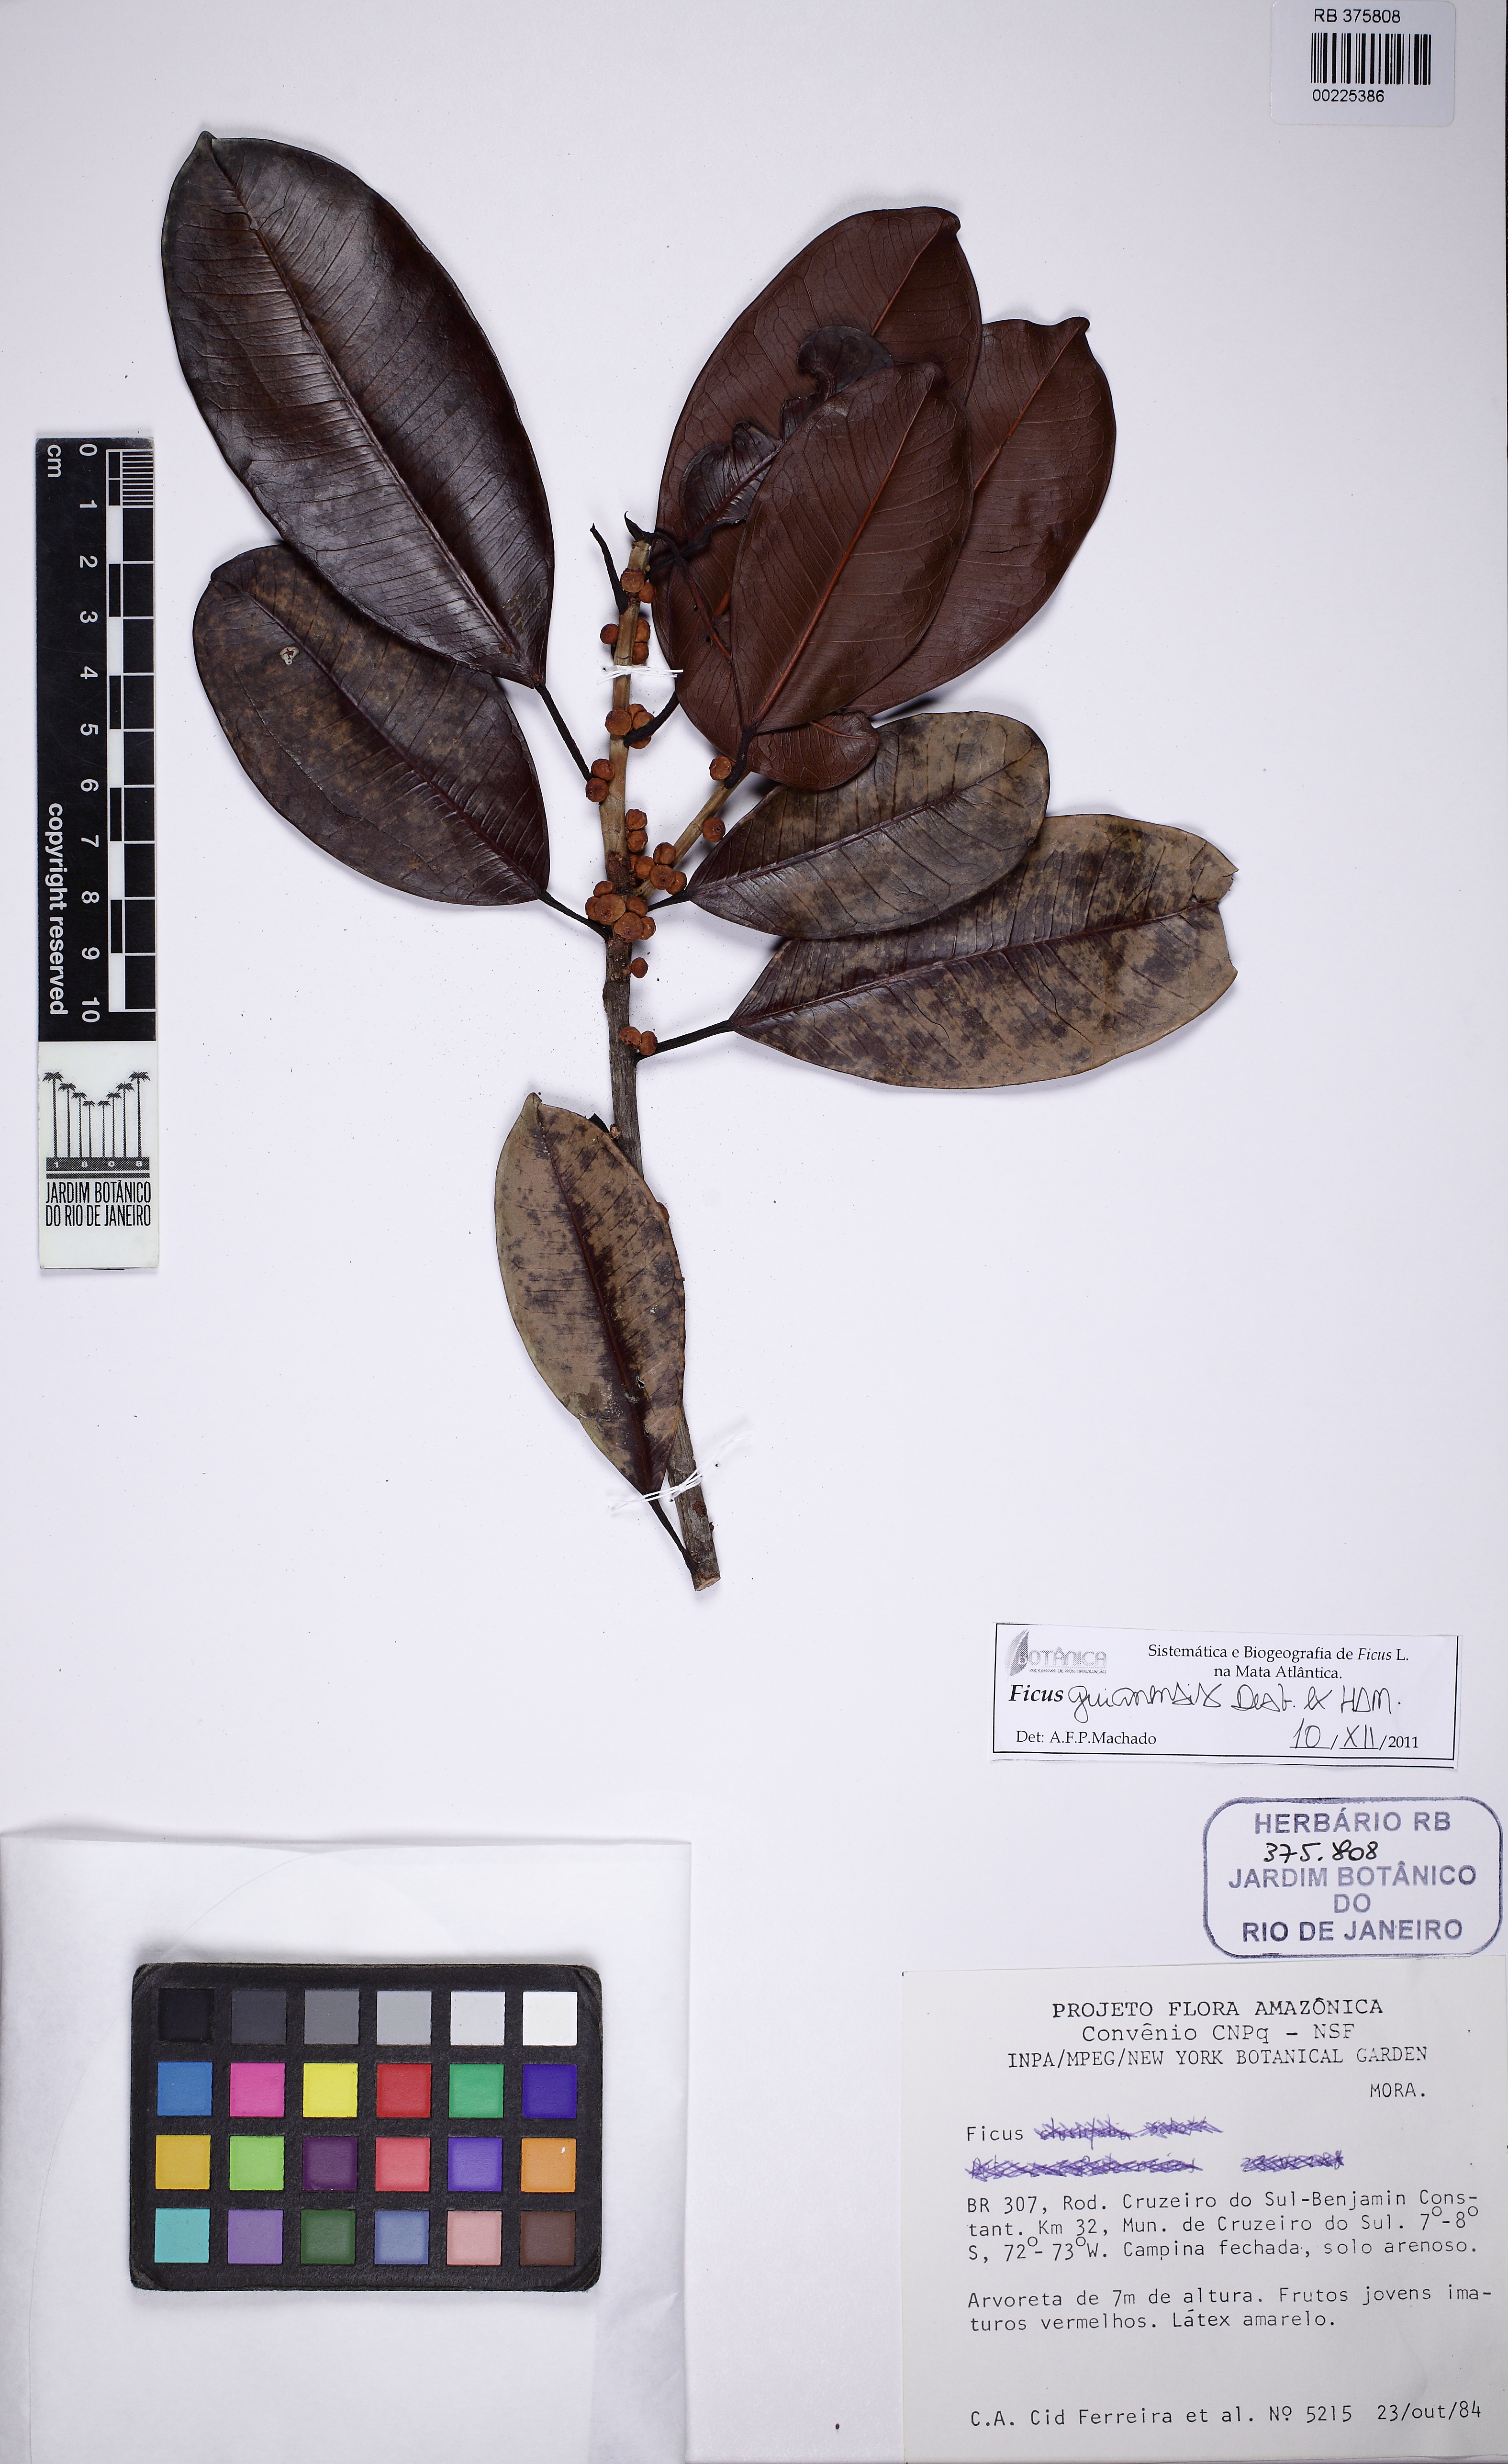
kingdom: Plantae
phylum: Tracheophyta
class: Magnoliopsida
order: Rosales
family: Moraceae
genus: Ficus
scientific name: Ficus mathewsii
